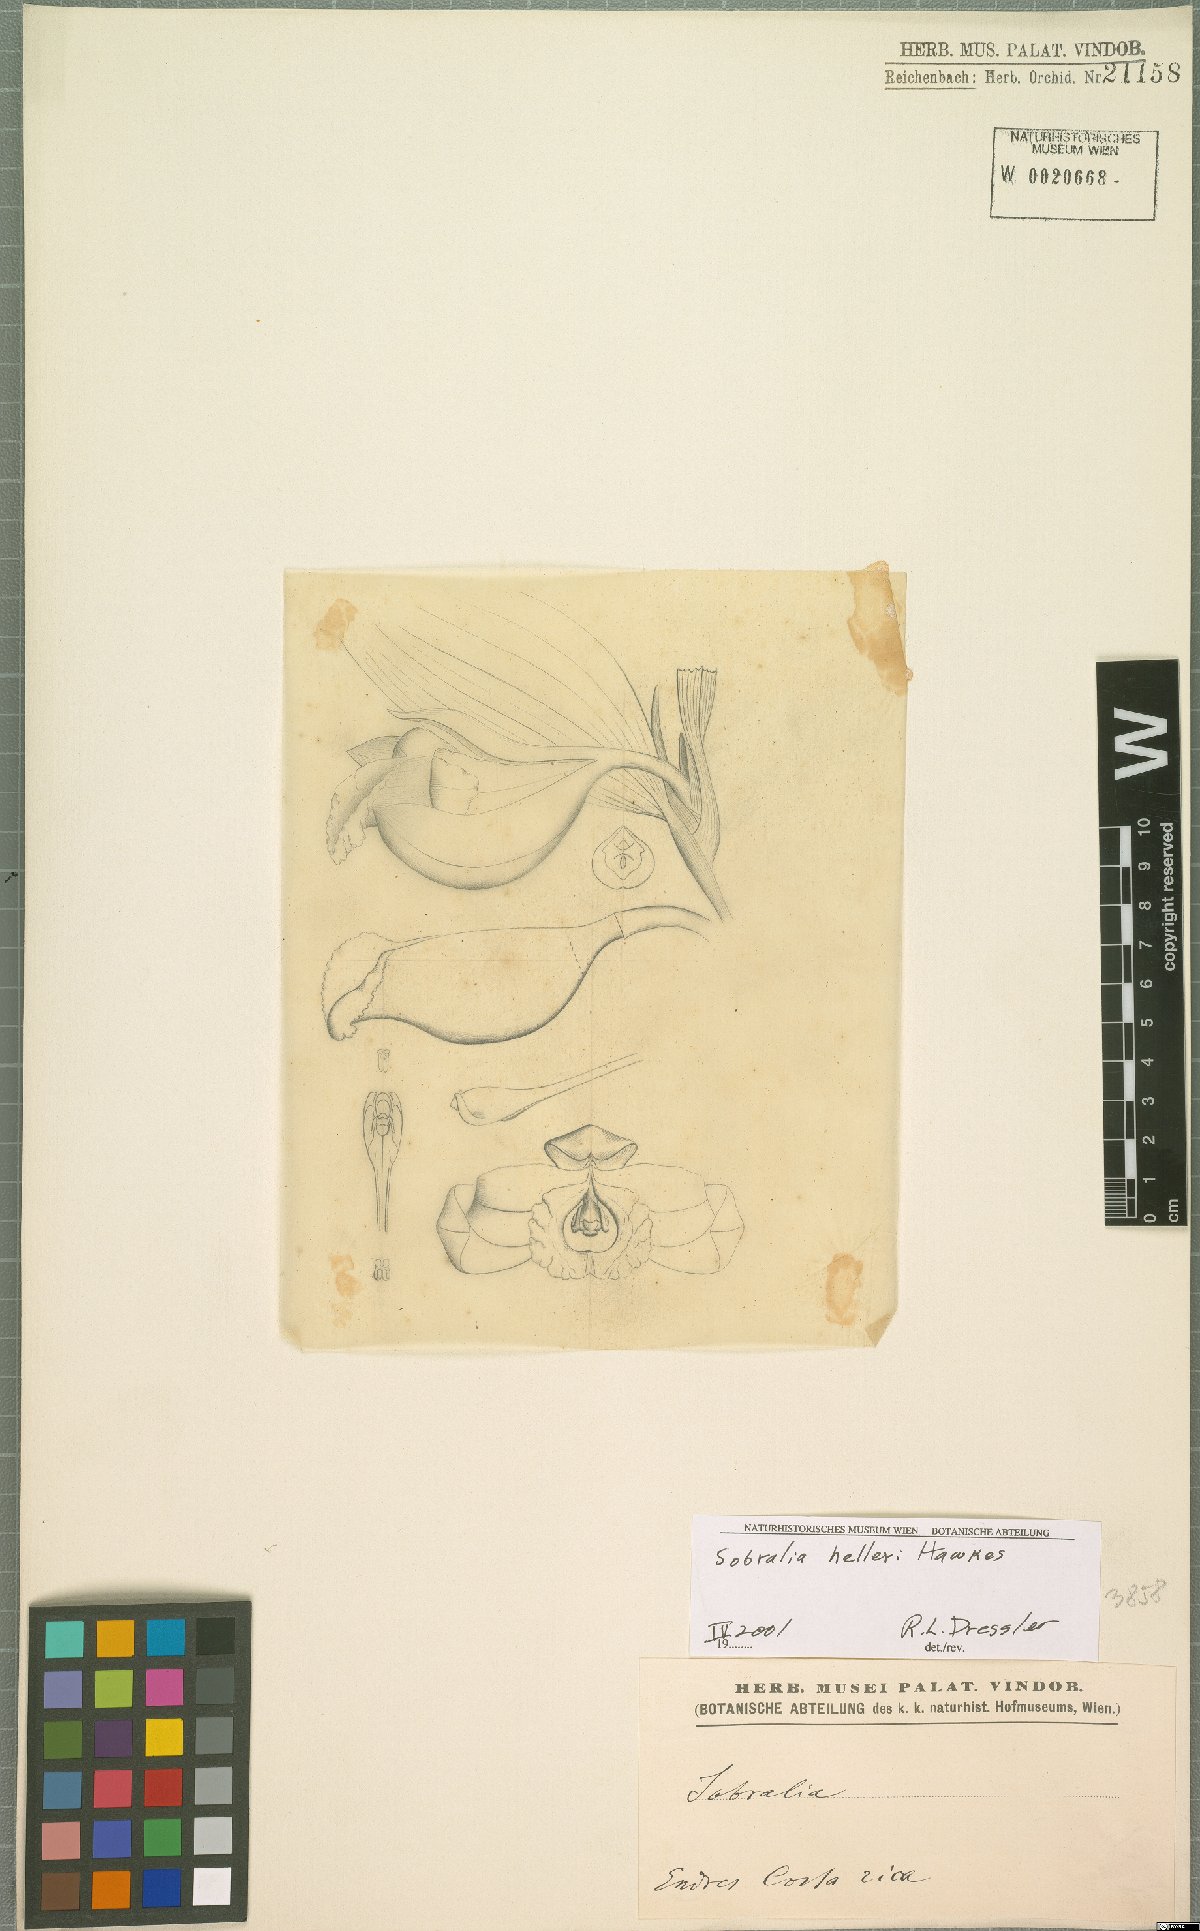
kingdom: Plantae
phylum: Tracheophyta
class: Liliopsida
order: Asparagales
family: Orchidaceae
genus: Sobralia
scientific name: Sobralia helleri
